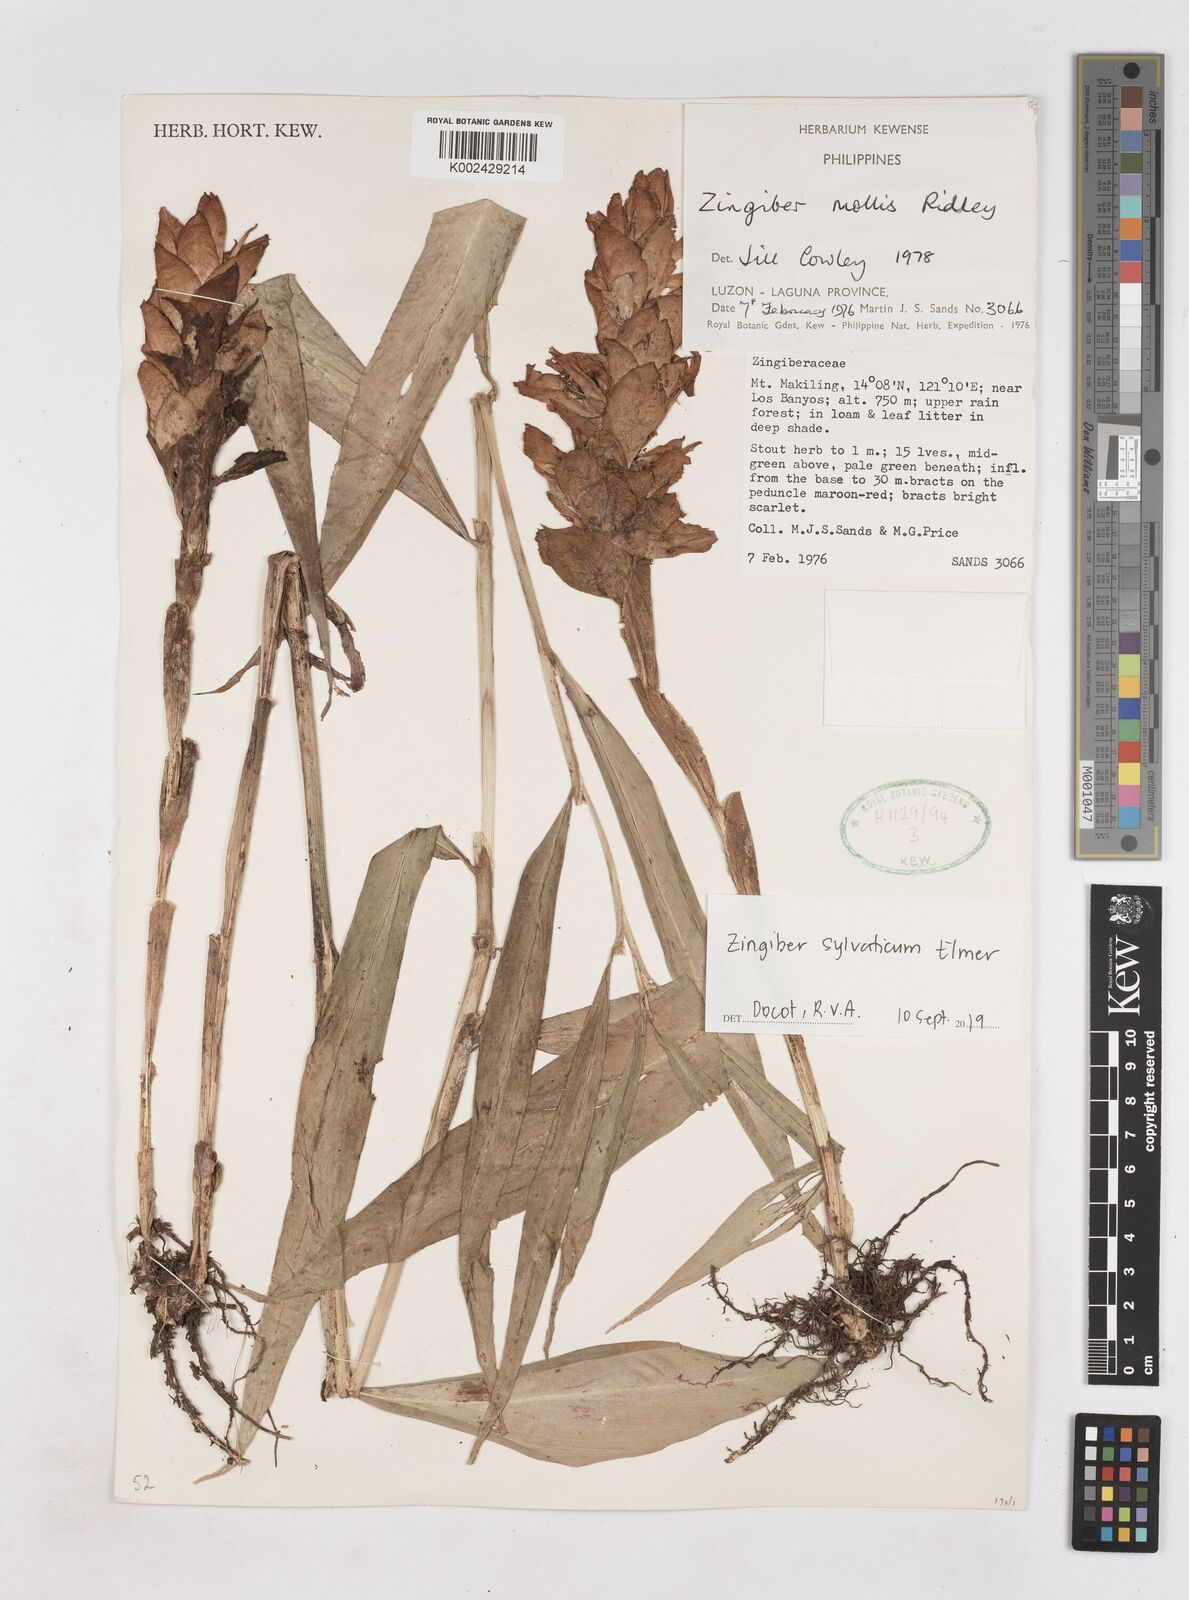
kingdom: Plantae
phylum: Tracheophyta
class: Liliopsida
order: Zingiberales
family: Zingiberaceae
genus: Zingiber
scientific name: Zingiber molle
